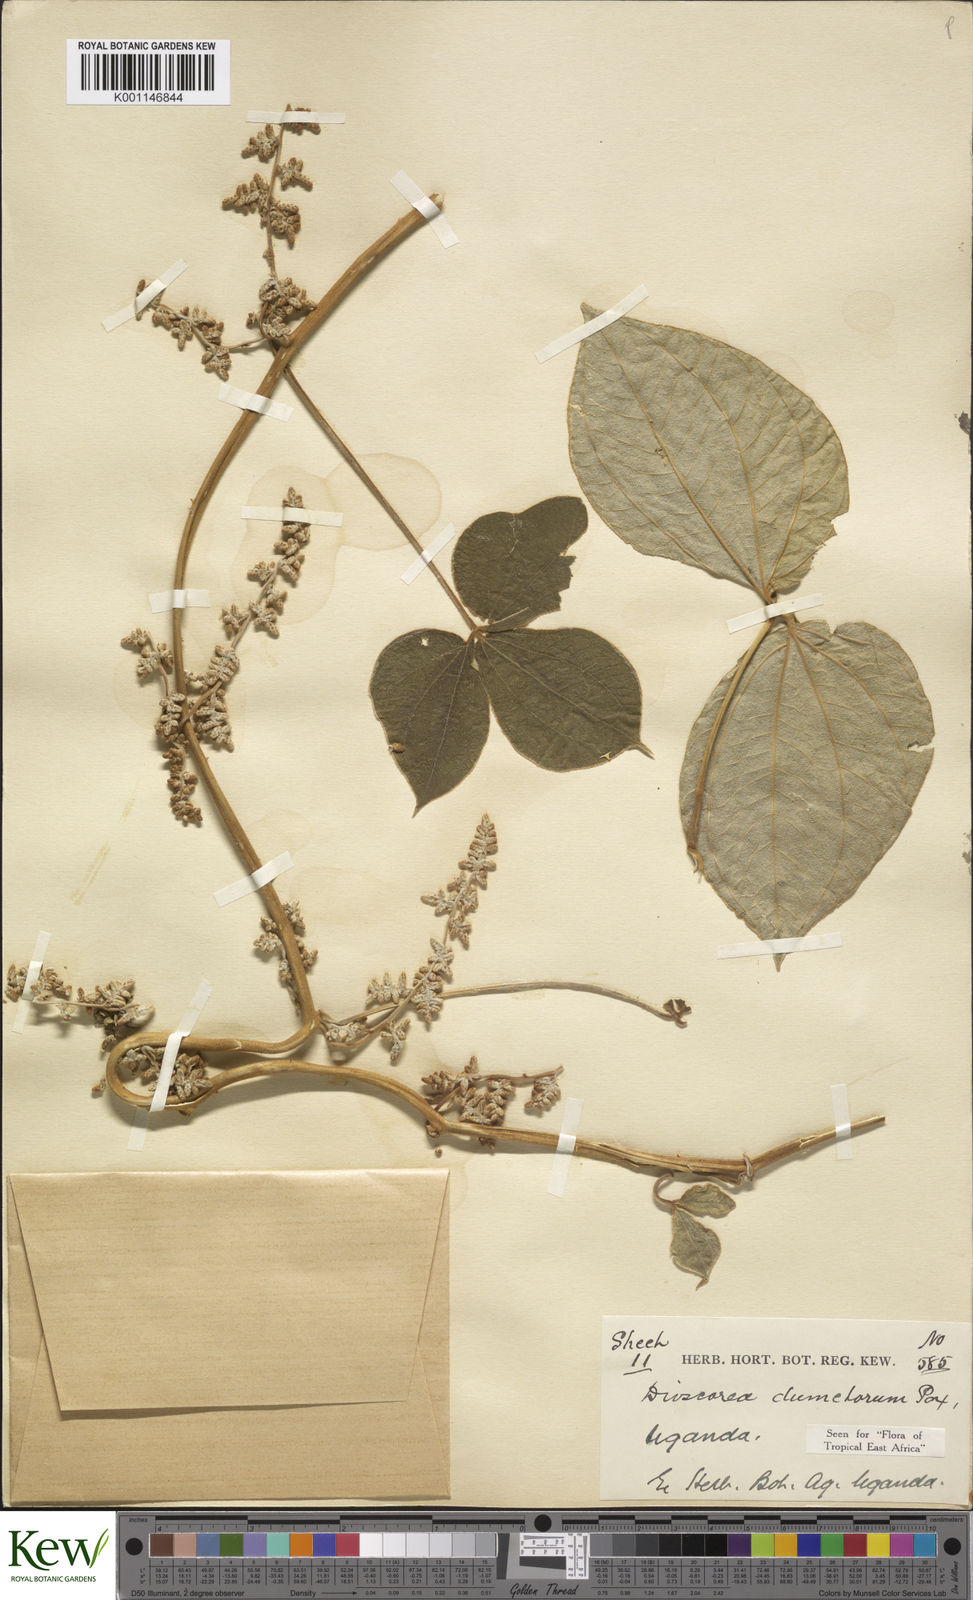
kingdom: Plantae
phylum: Tracheophyta
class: Liliopsida
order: Dioscoreales
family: Dioscoreaceae
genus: Dioscorea
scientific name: Dioscorea dumetorum
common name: African bitter yam
